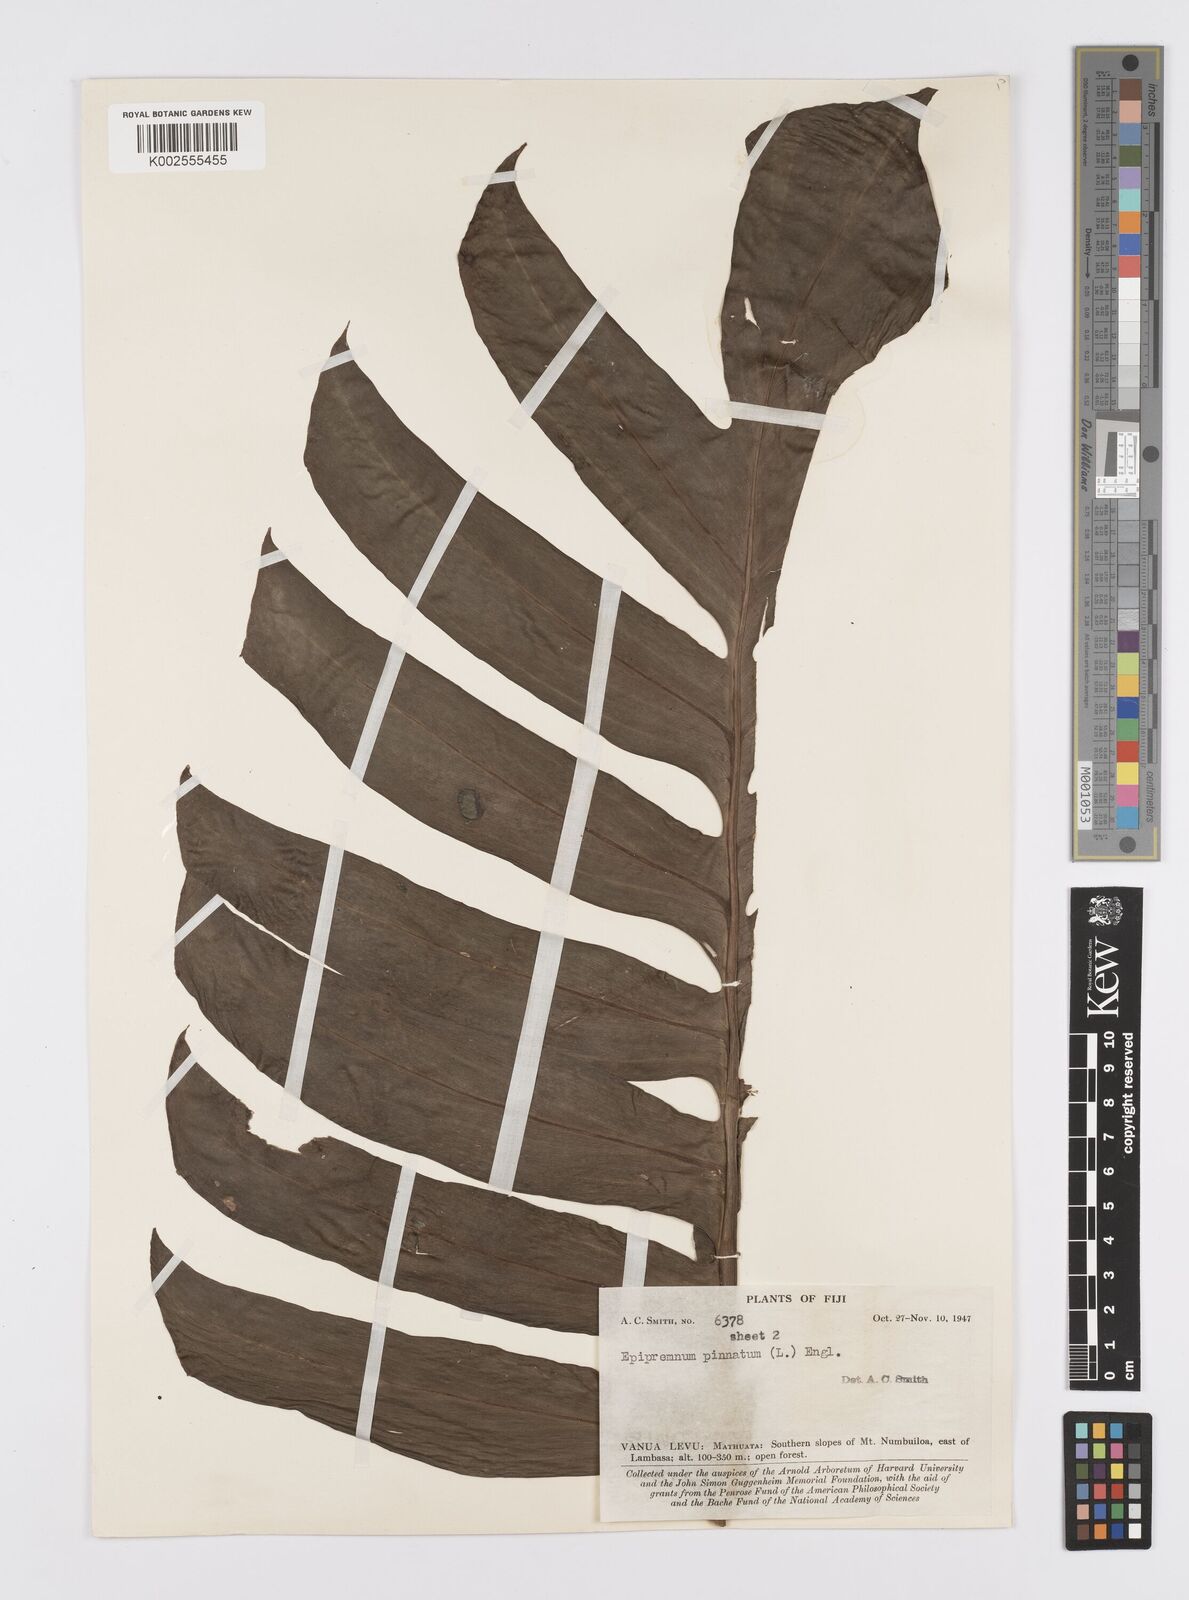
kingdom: Plantae
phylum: Tracheophyta
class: Liliopsida
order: Alismatales
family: Araceae
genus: Epipremnum
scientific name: Epipremnum pinnatum
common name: Centipede tongavine
